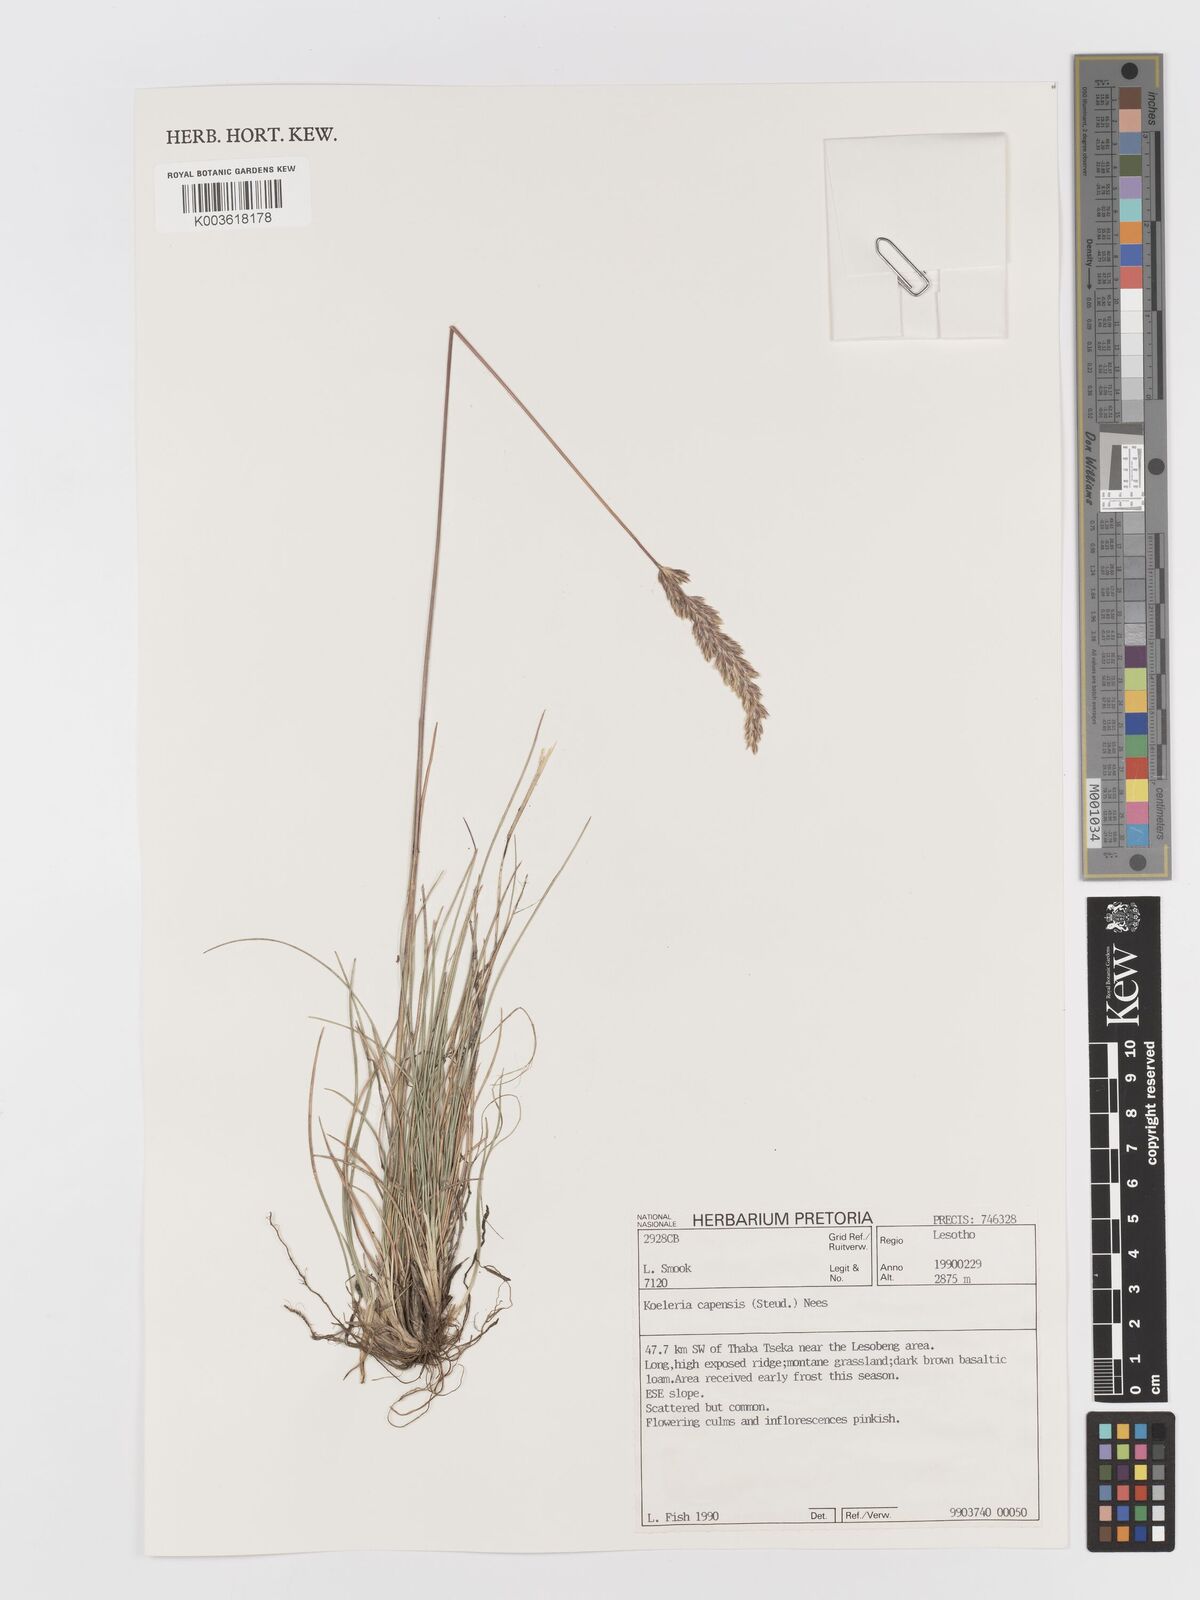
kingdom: Plantae
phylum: Tracheophyta
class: Liliopsida
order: Poales
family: Poaceae
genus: Koeleria
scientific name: Koeleria capensis
